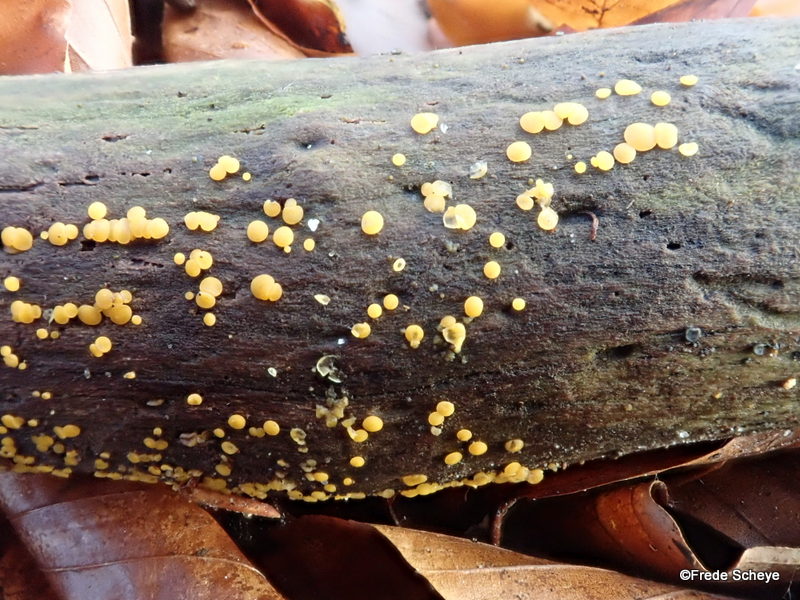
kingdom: Fungi
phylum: Ascomycota
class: Leotiomycetes
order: Helotiales
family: Pezizellaceae
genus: Calycina
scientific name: Calycina citrina
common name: almindelig gulskive
